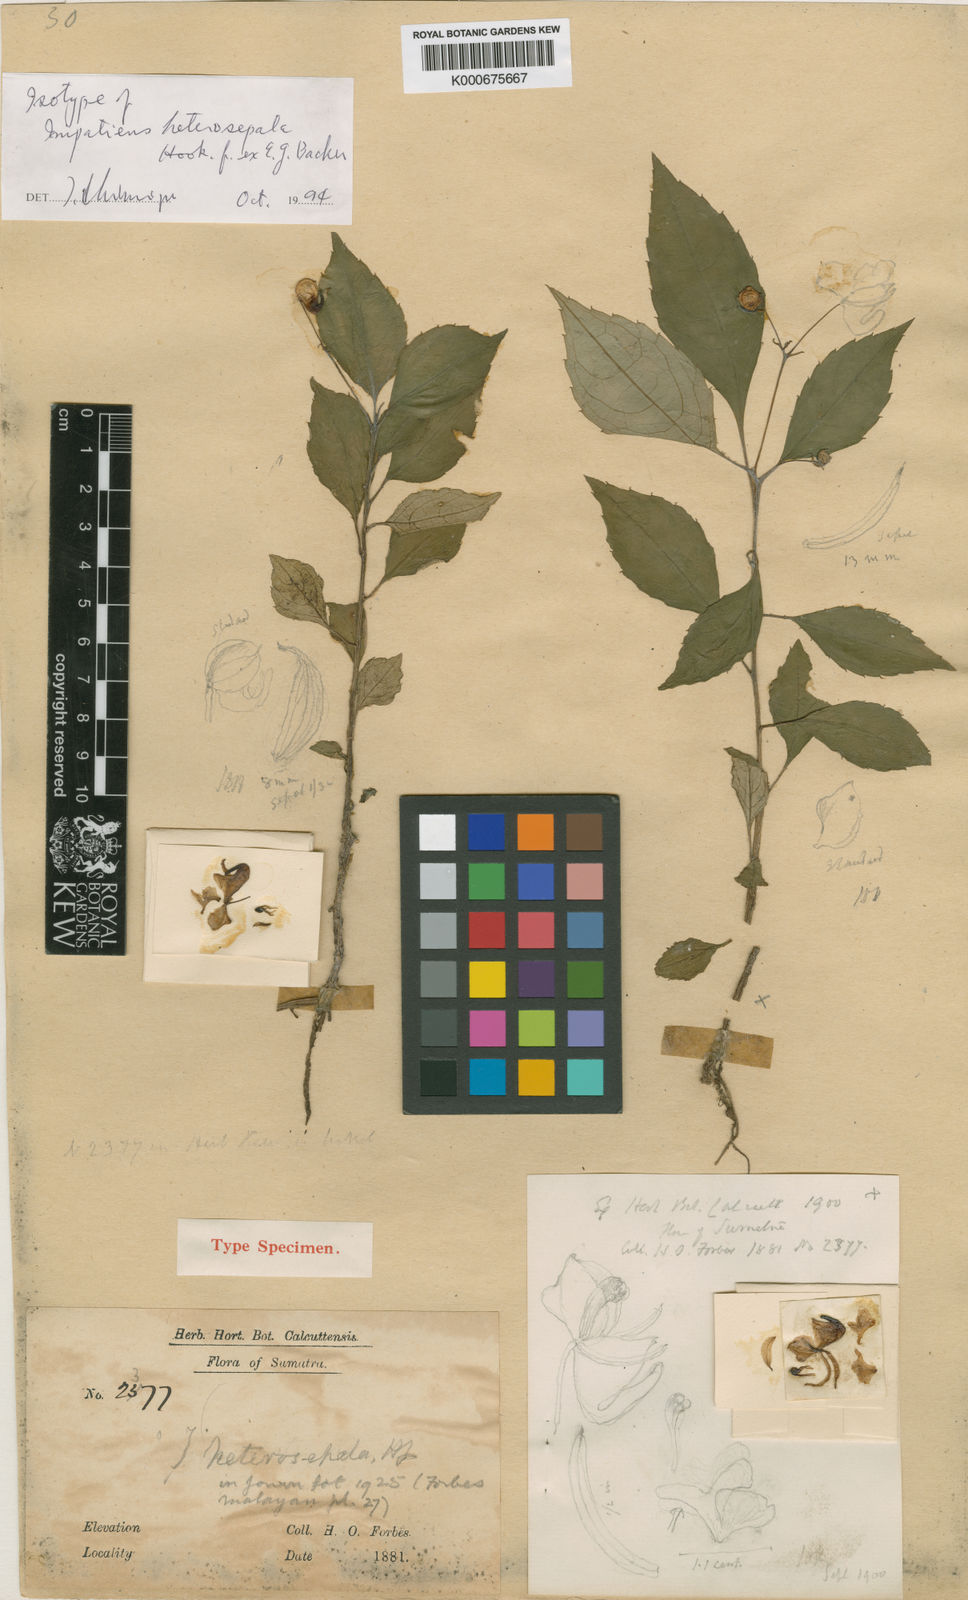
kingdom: Plantae
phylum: Tracheophyta
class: Magnoliopsida
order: Ericales
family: Balsaminaceae
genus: Impatiens
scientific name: Impatiens heterosepala
